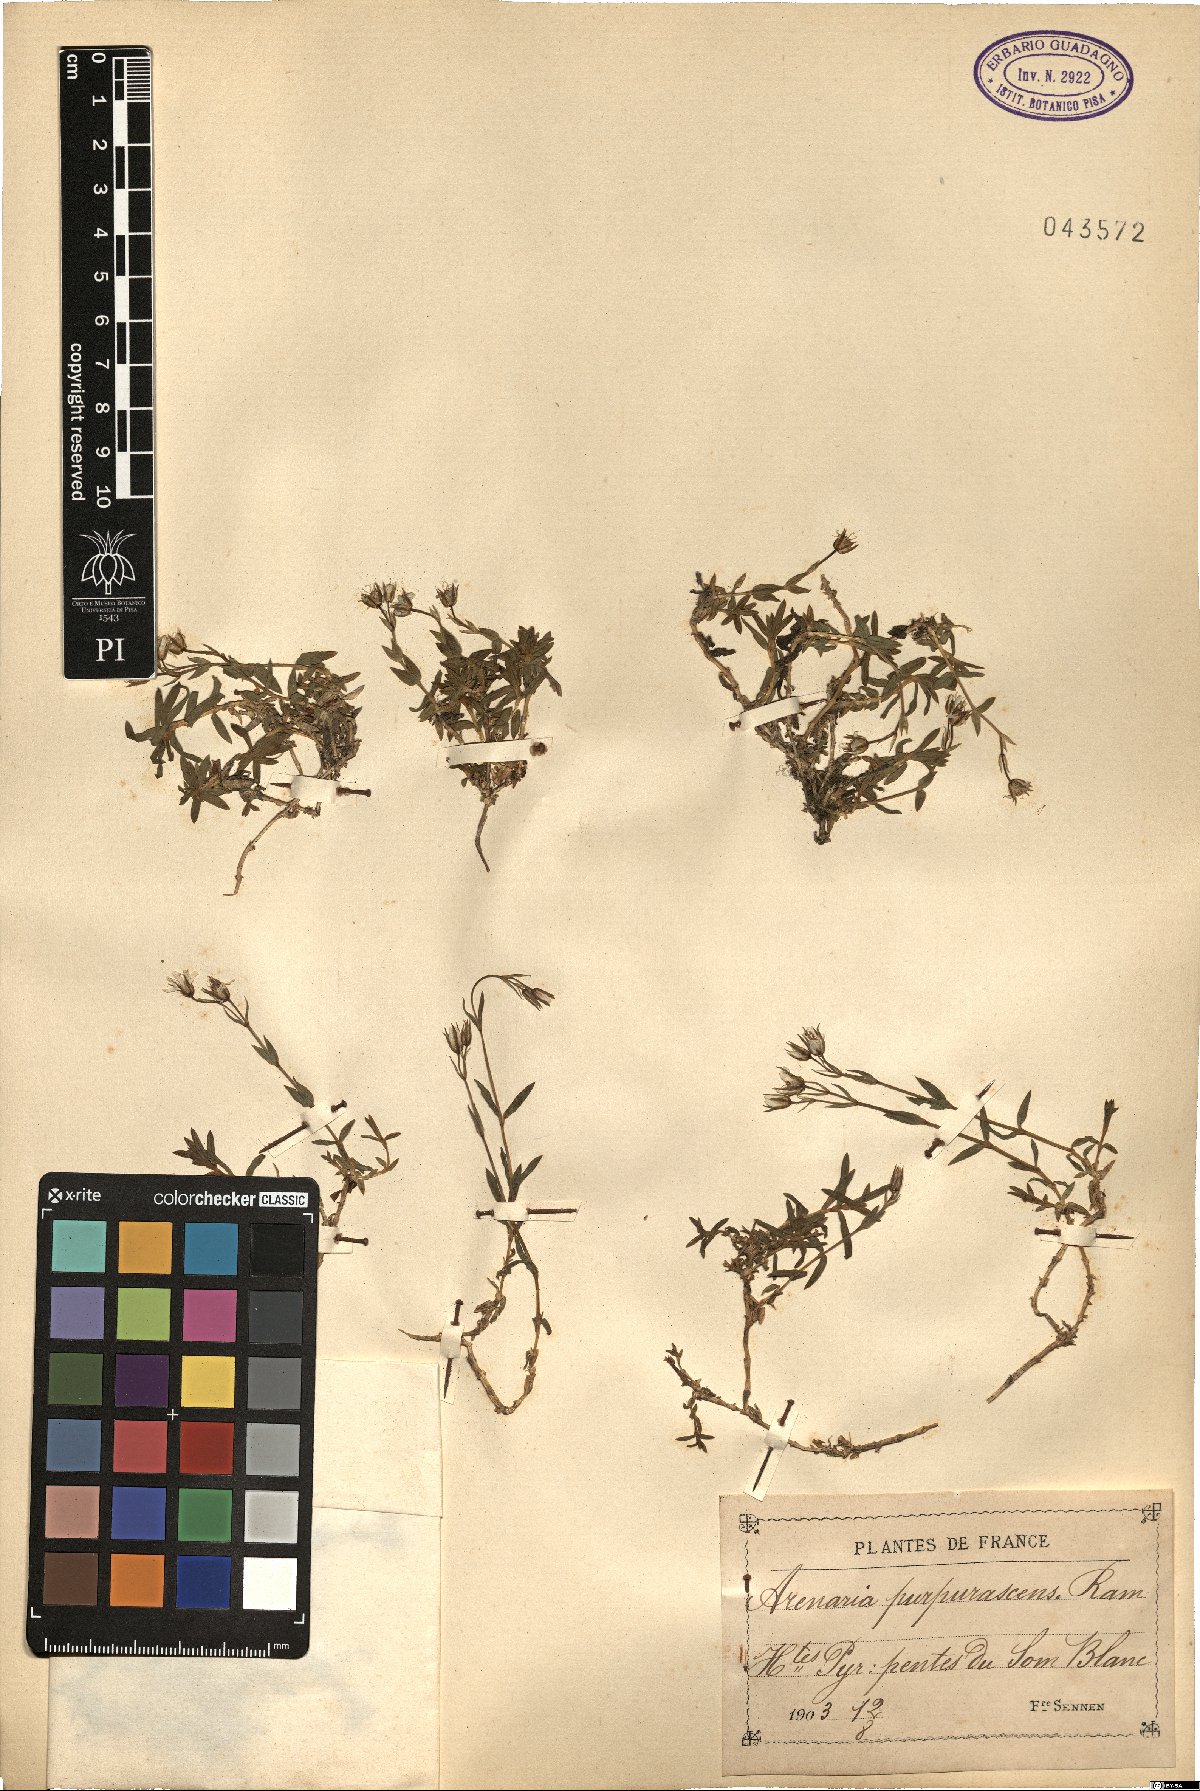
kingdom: Plantae
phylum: Tracheophyta
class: Magnoliopsida
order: Caryophyllales
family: Caryophyllaceae
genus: Arenaria
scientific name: Arenaria purpurascens
